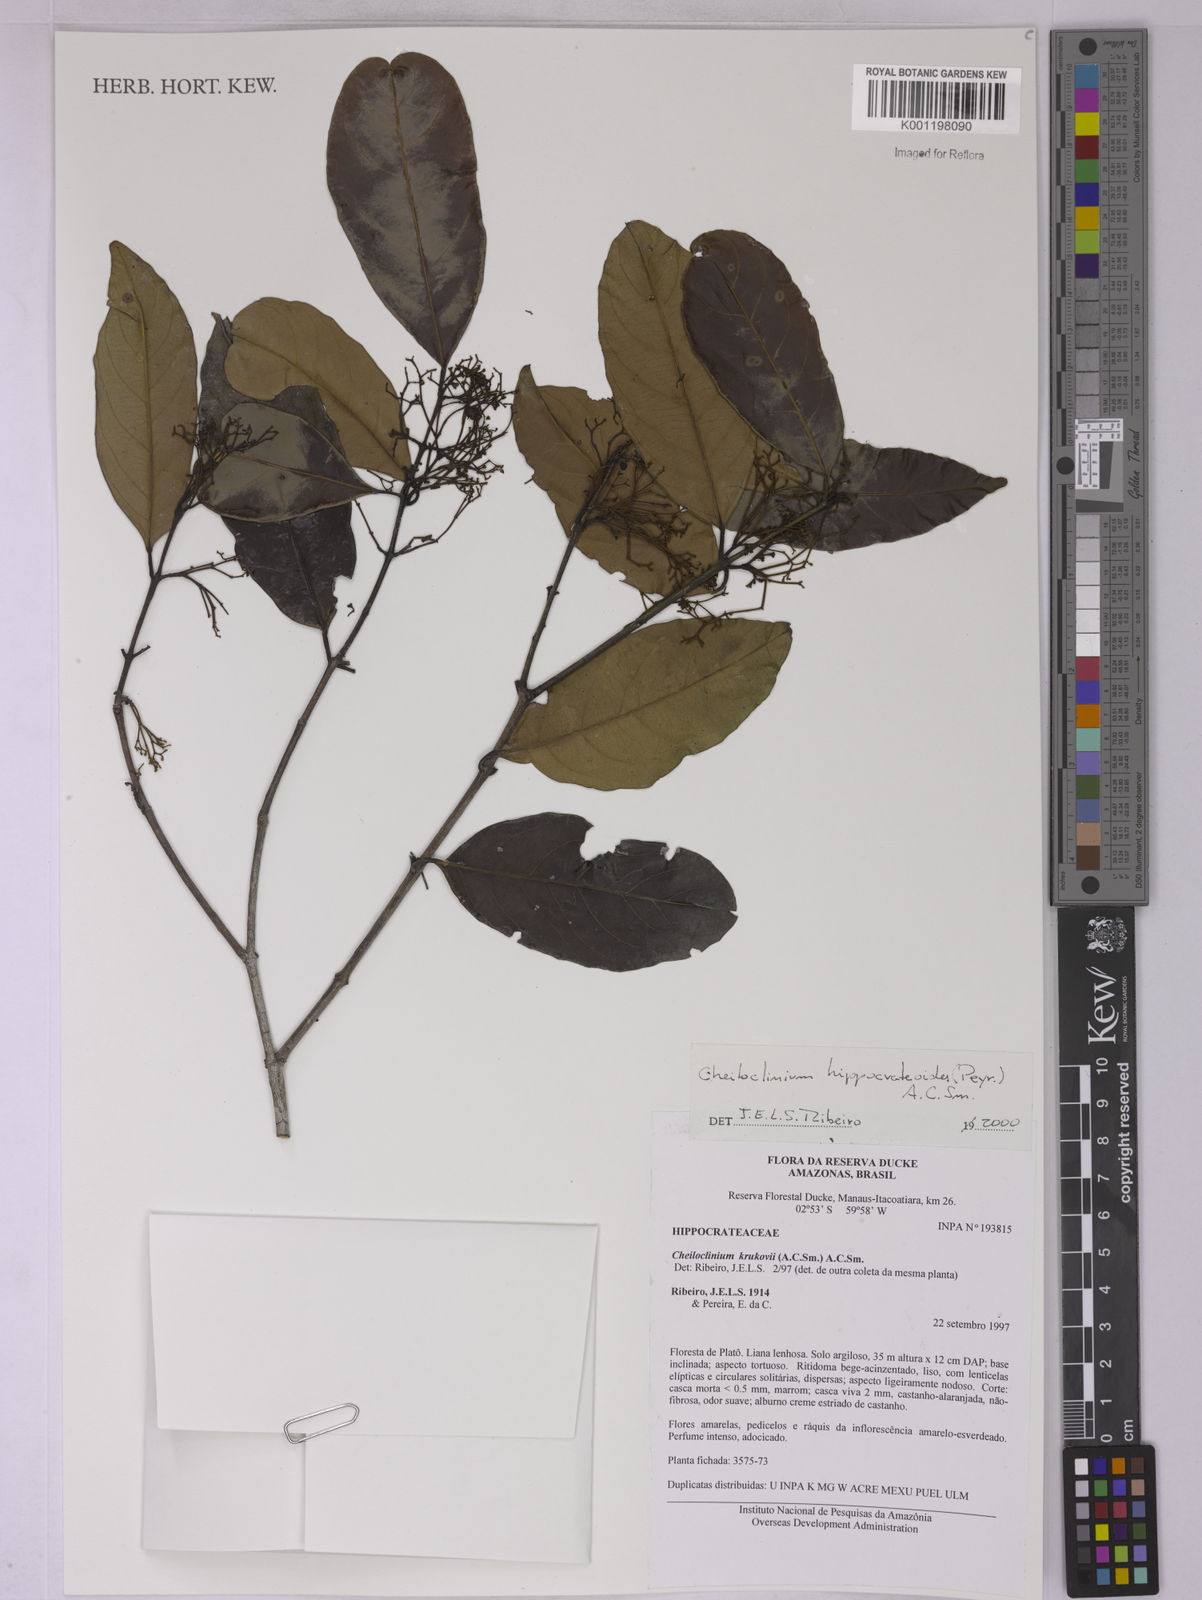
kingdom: Plantae
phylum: Tracheophyta
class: Magnoliopsida
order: Celastrales
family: Celastraceae
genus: Cheiloclinium
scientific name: Cheiloclinium hippocrateoides
